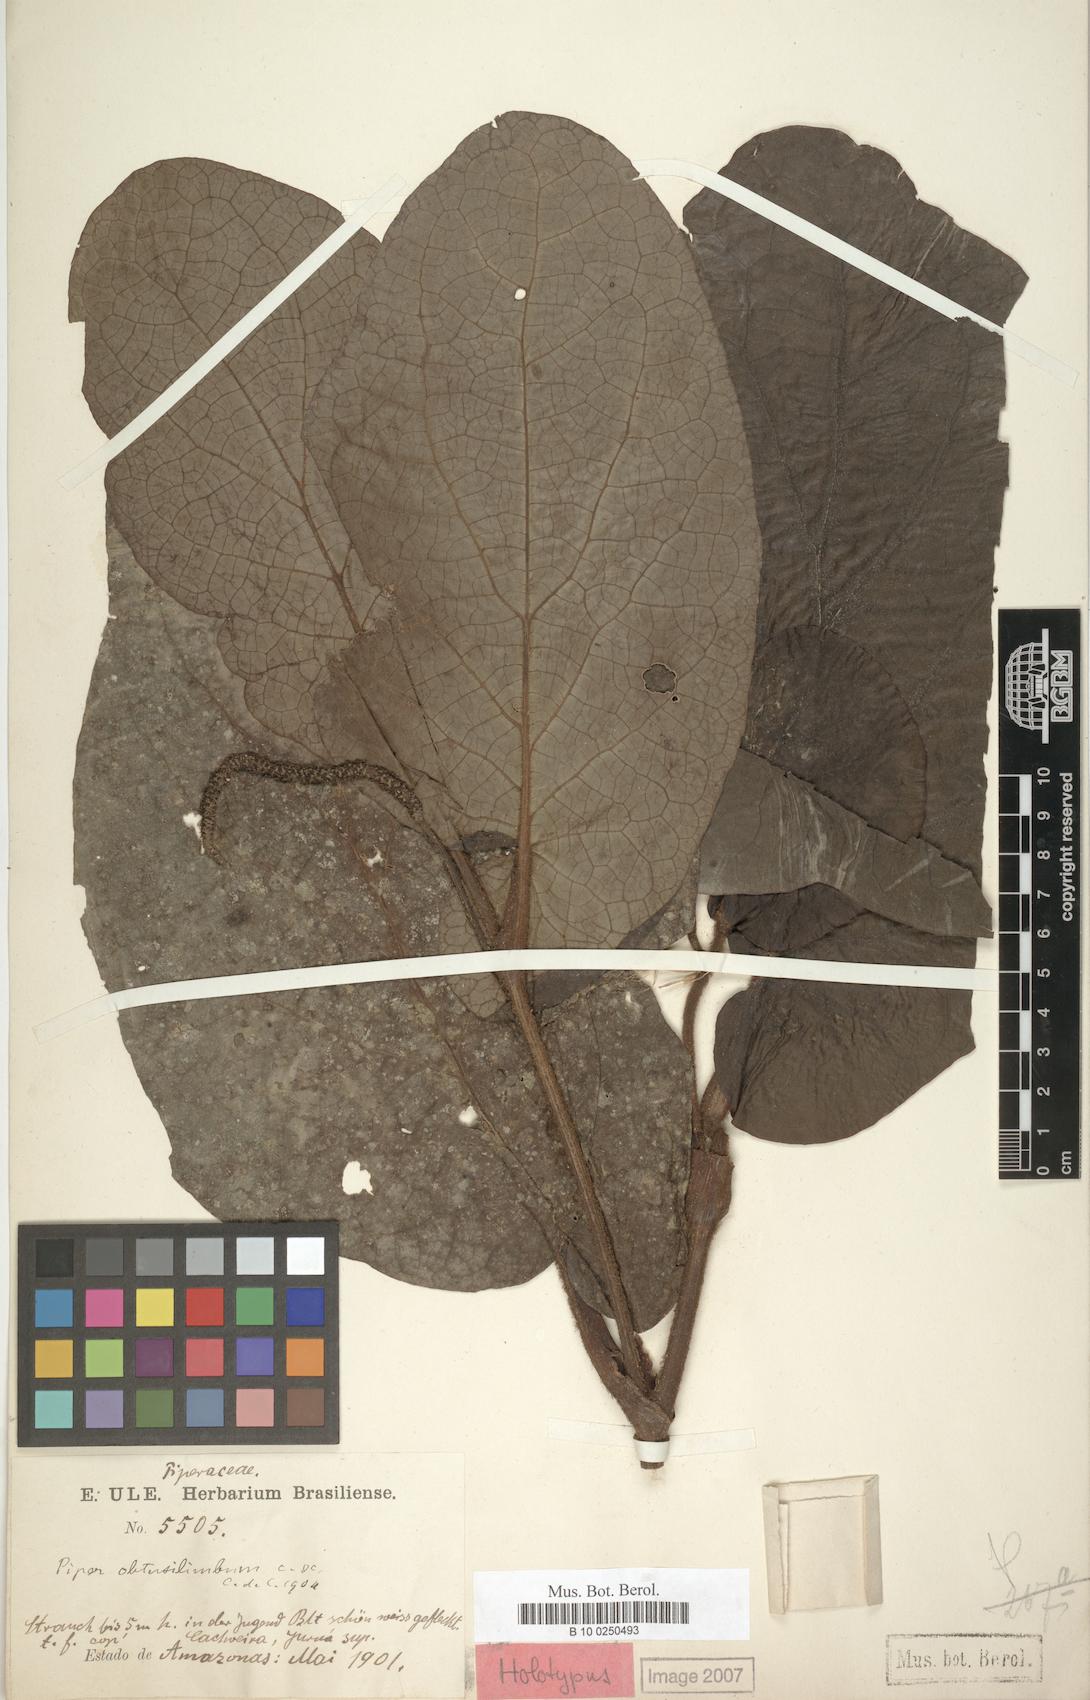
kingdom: Plantae
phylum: Tracheophyta
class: Magnoliopsida
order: Piperales
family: Piperaceae
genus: Piper
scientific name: Piper obtusilimbum
